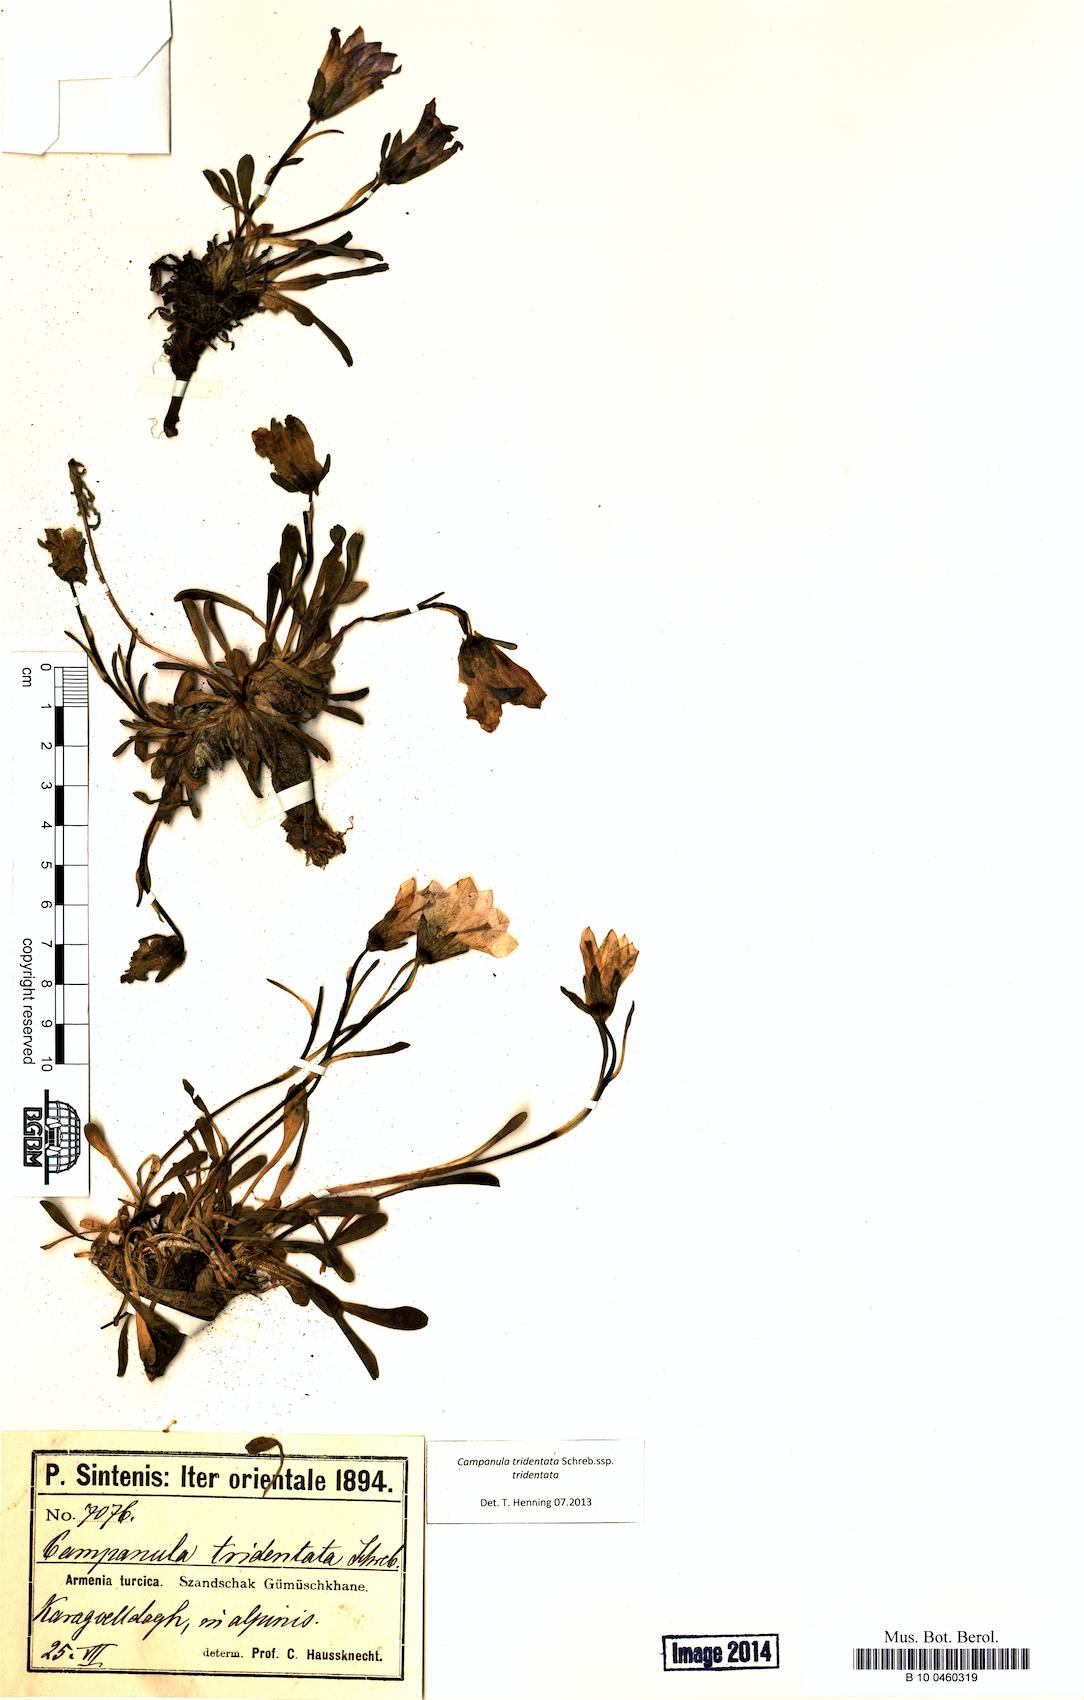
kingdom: Plantae
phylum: Tracheophyta
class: Magnoliopsida
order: Asterales
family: Campanulaceae
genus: Campanula
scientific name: Campanula tridentata
